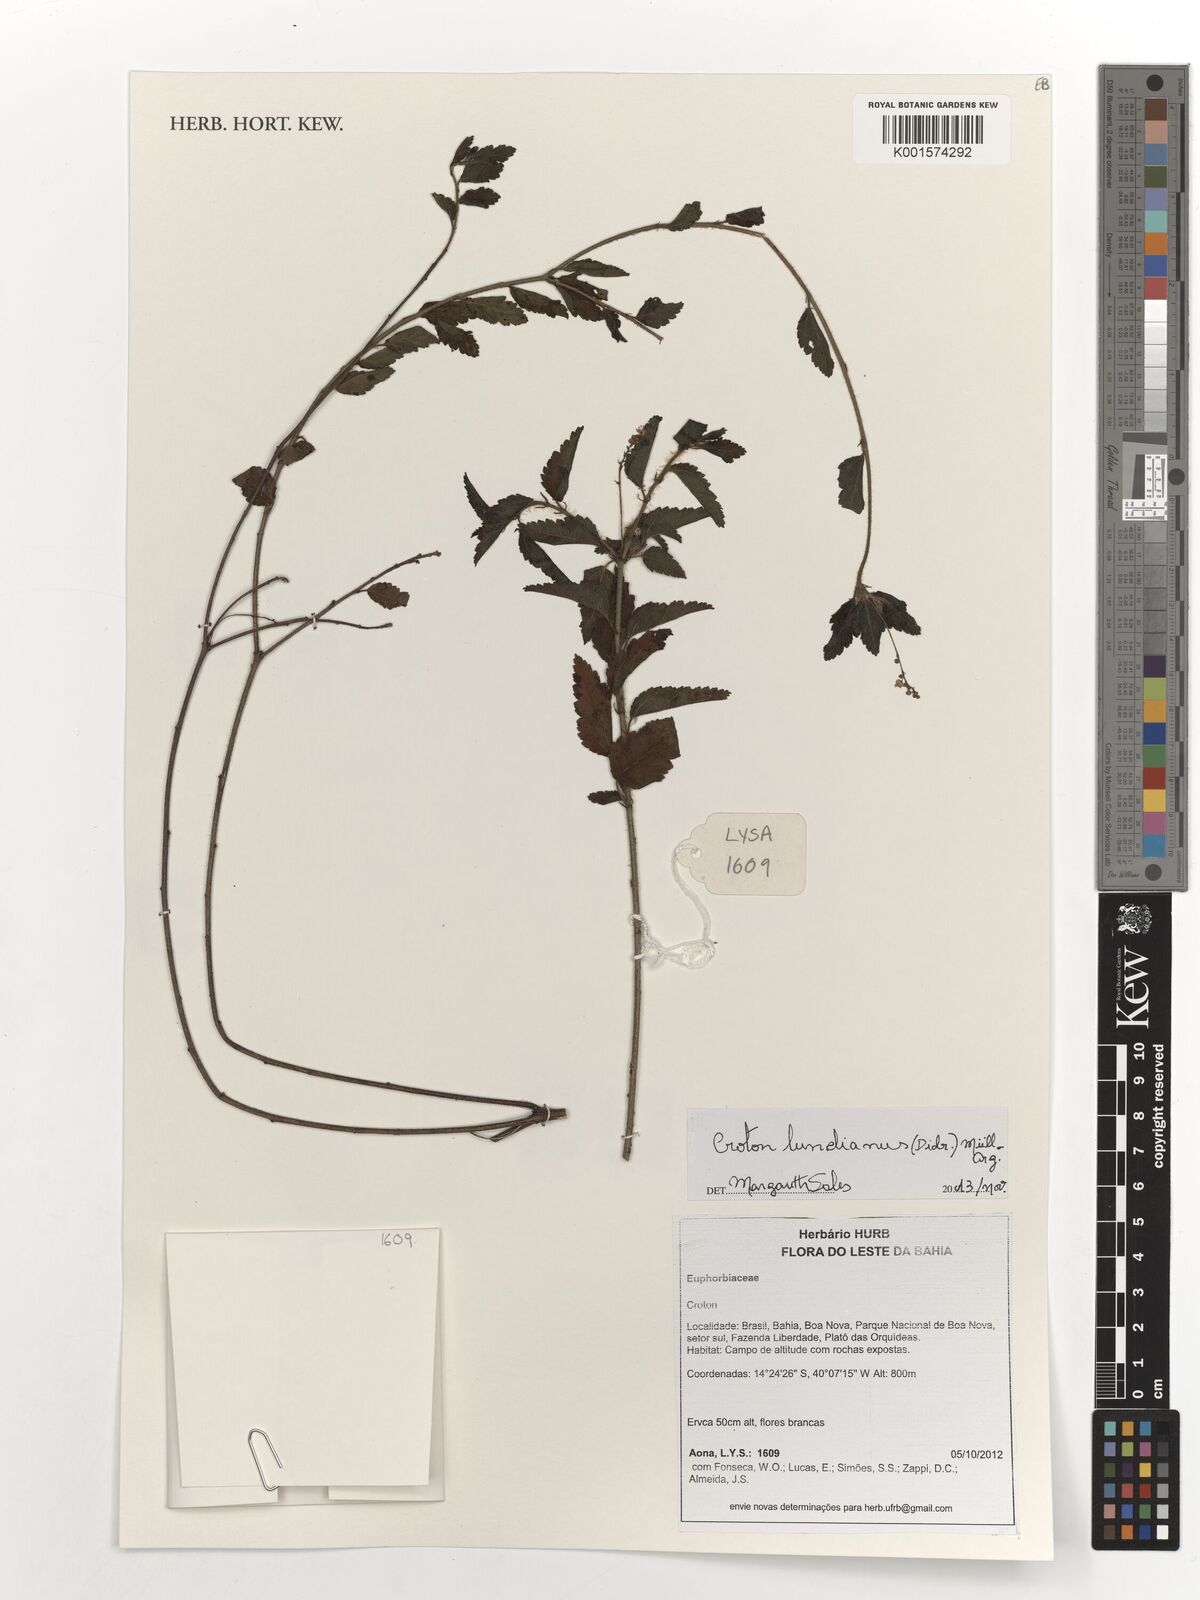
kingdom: Plantae
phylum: Tracheophyta
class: Magnoliopsida
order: Malpighiales
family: Euphorbiaceae
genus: Croton
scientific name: Croton lundianus
